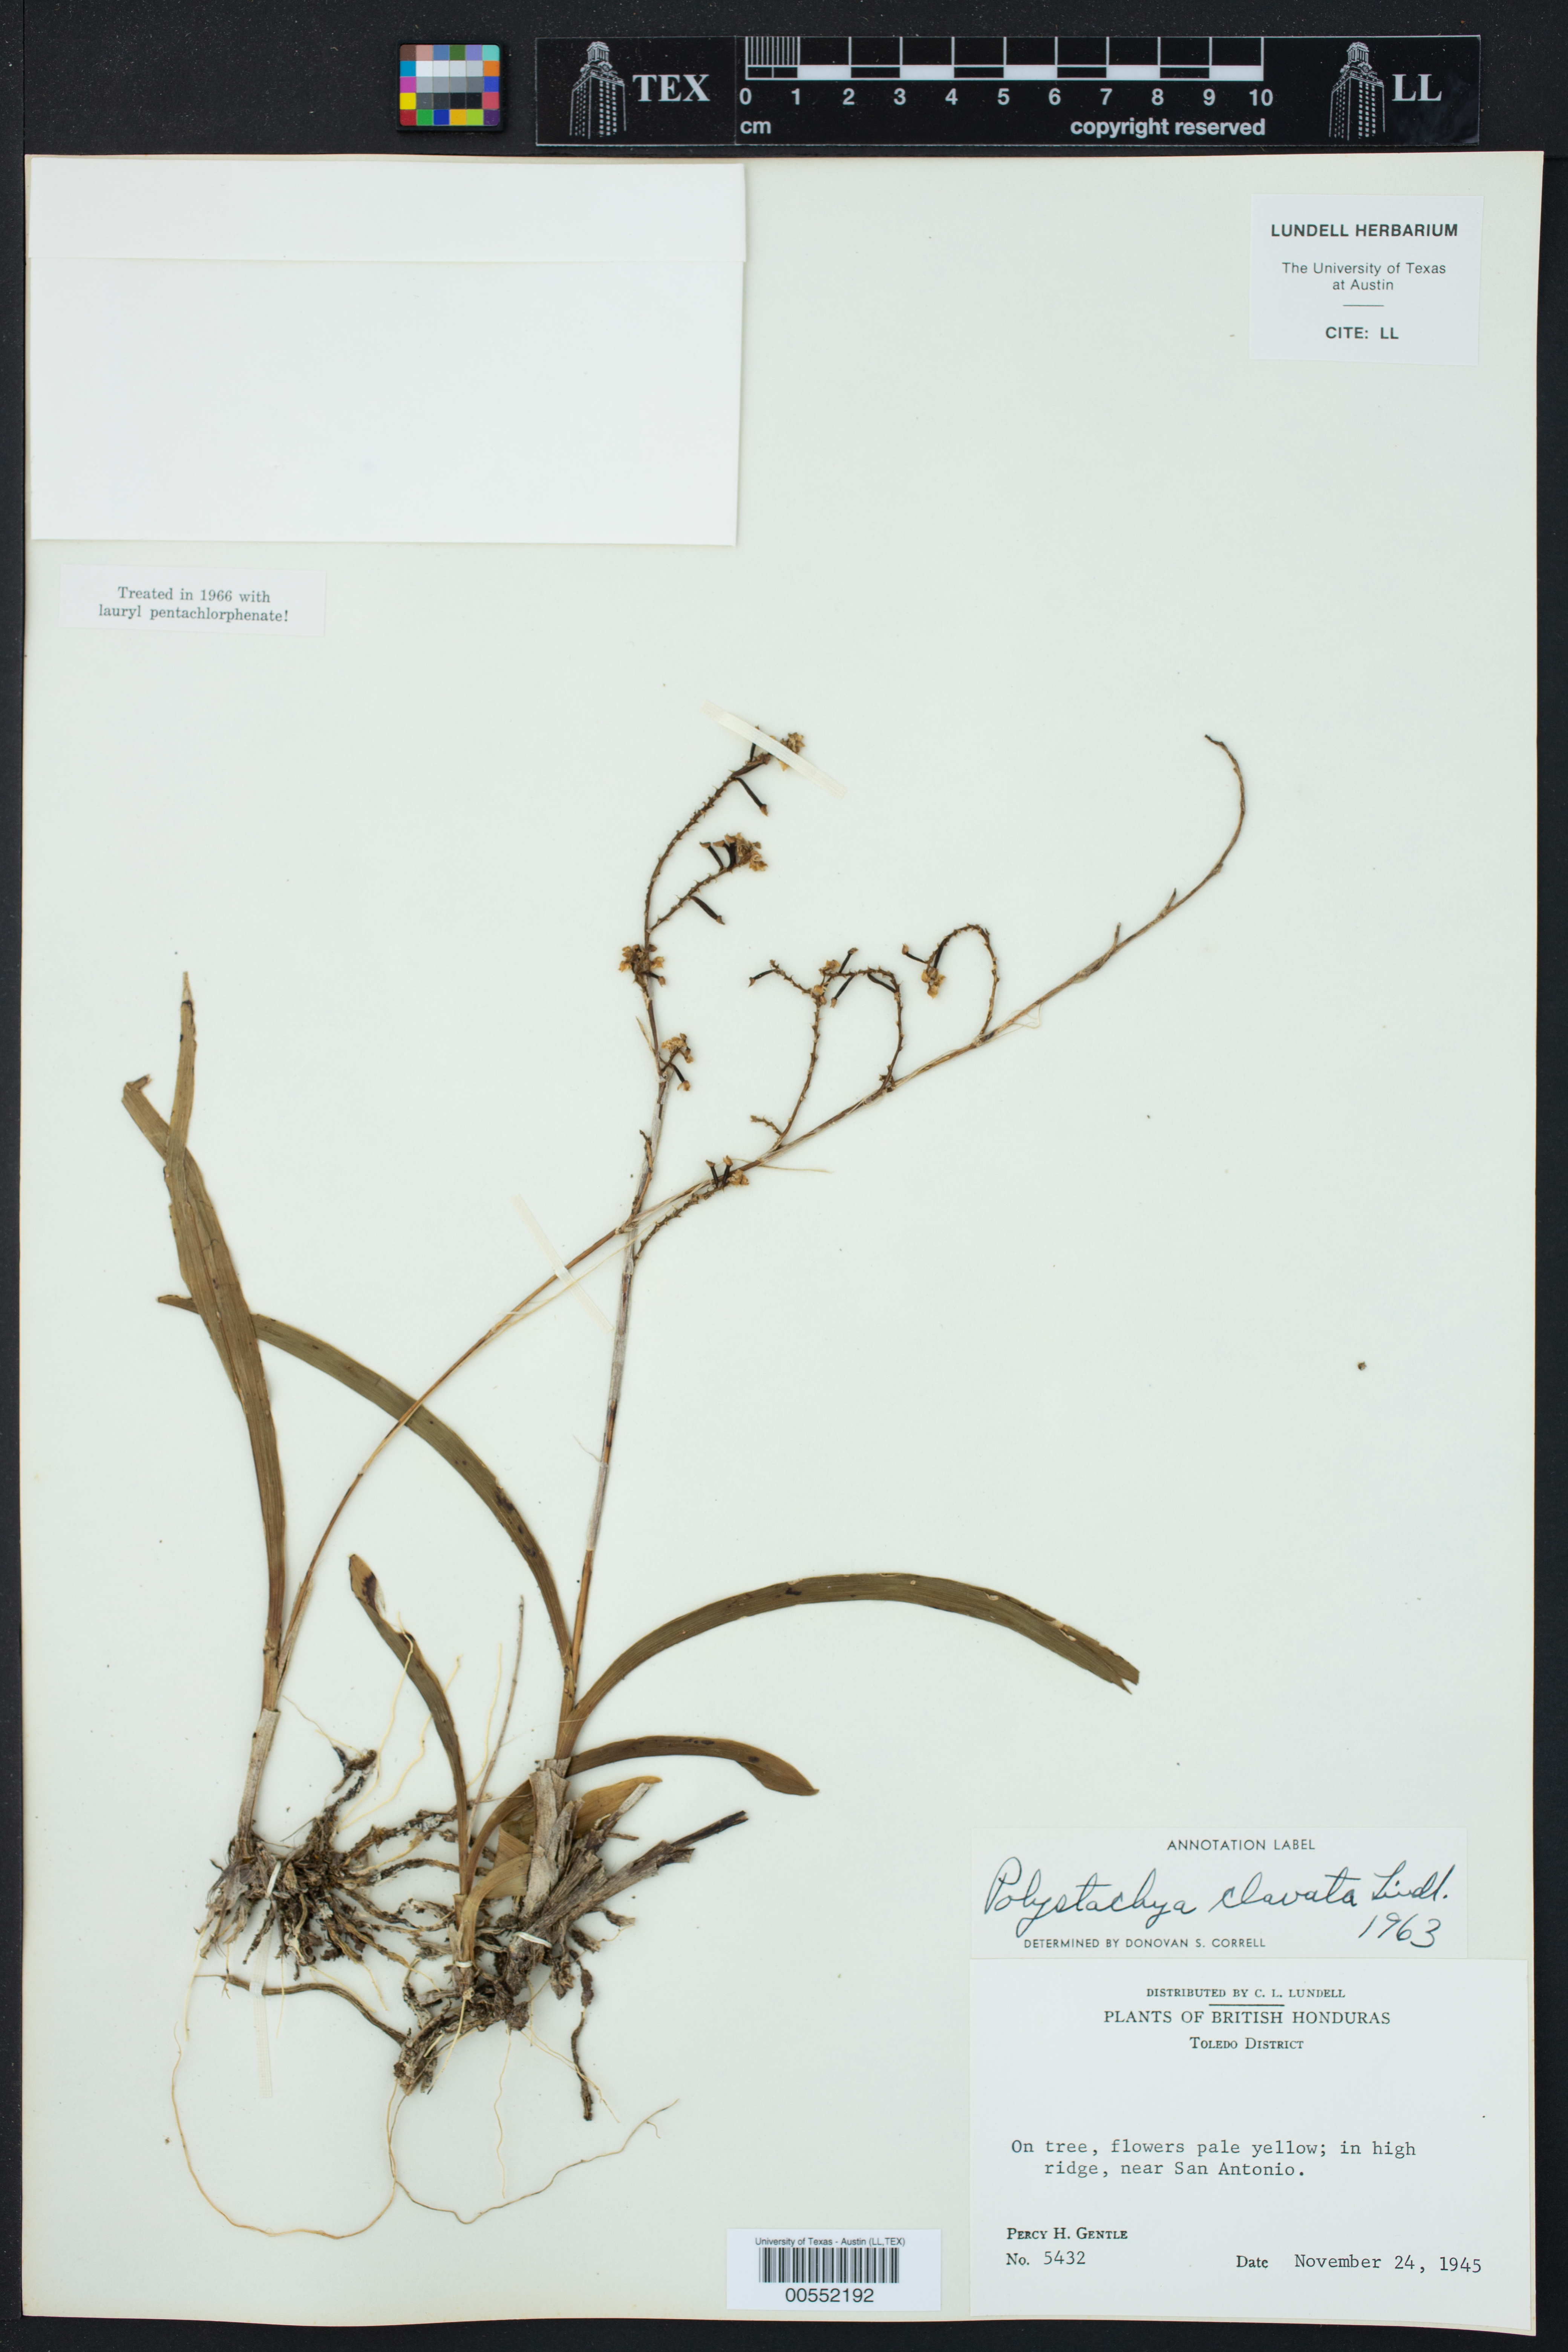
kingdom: Plantae
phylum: Tracheophyta
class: Liliopsida
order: Asparagales
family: Orchidaceae
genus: Polystachya
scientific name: Polystachya clavata
